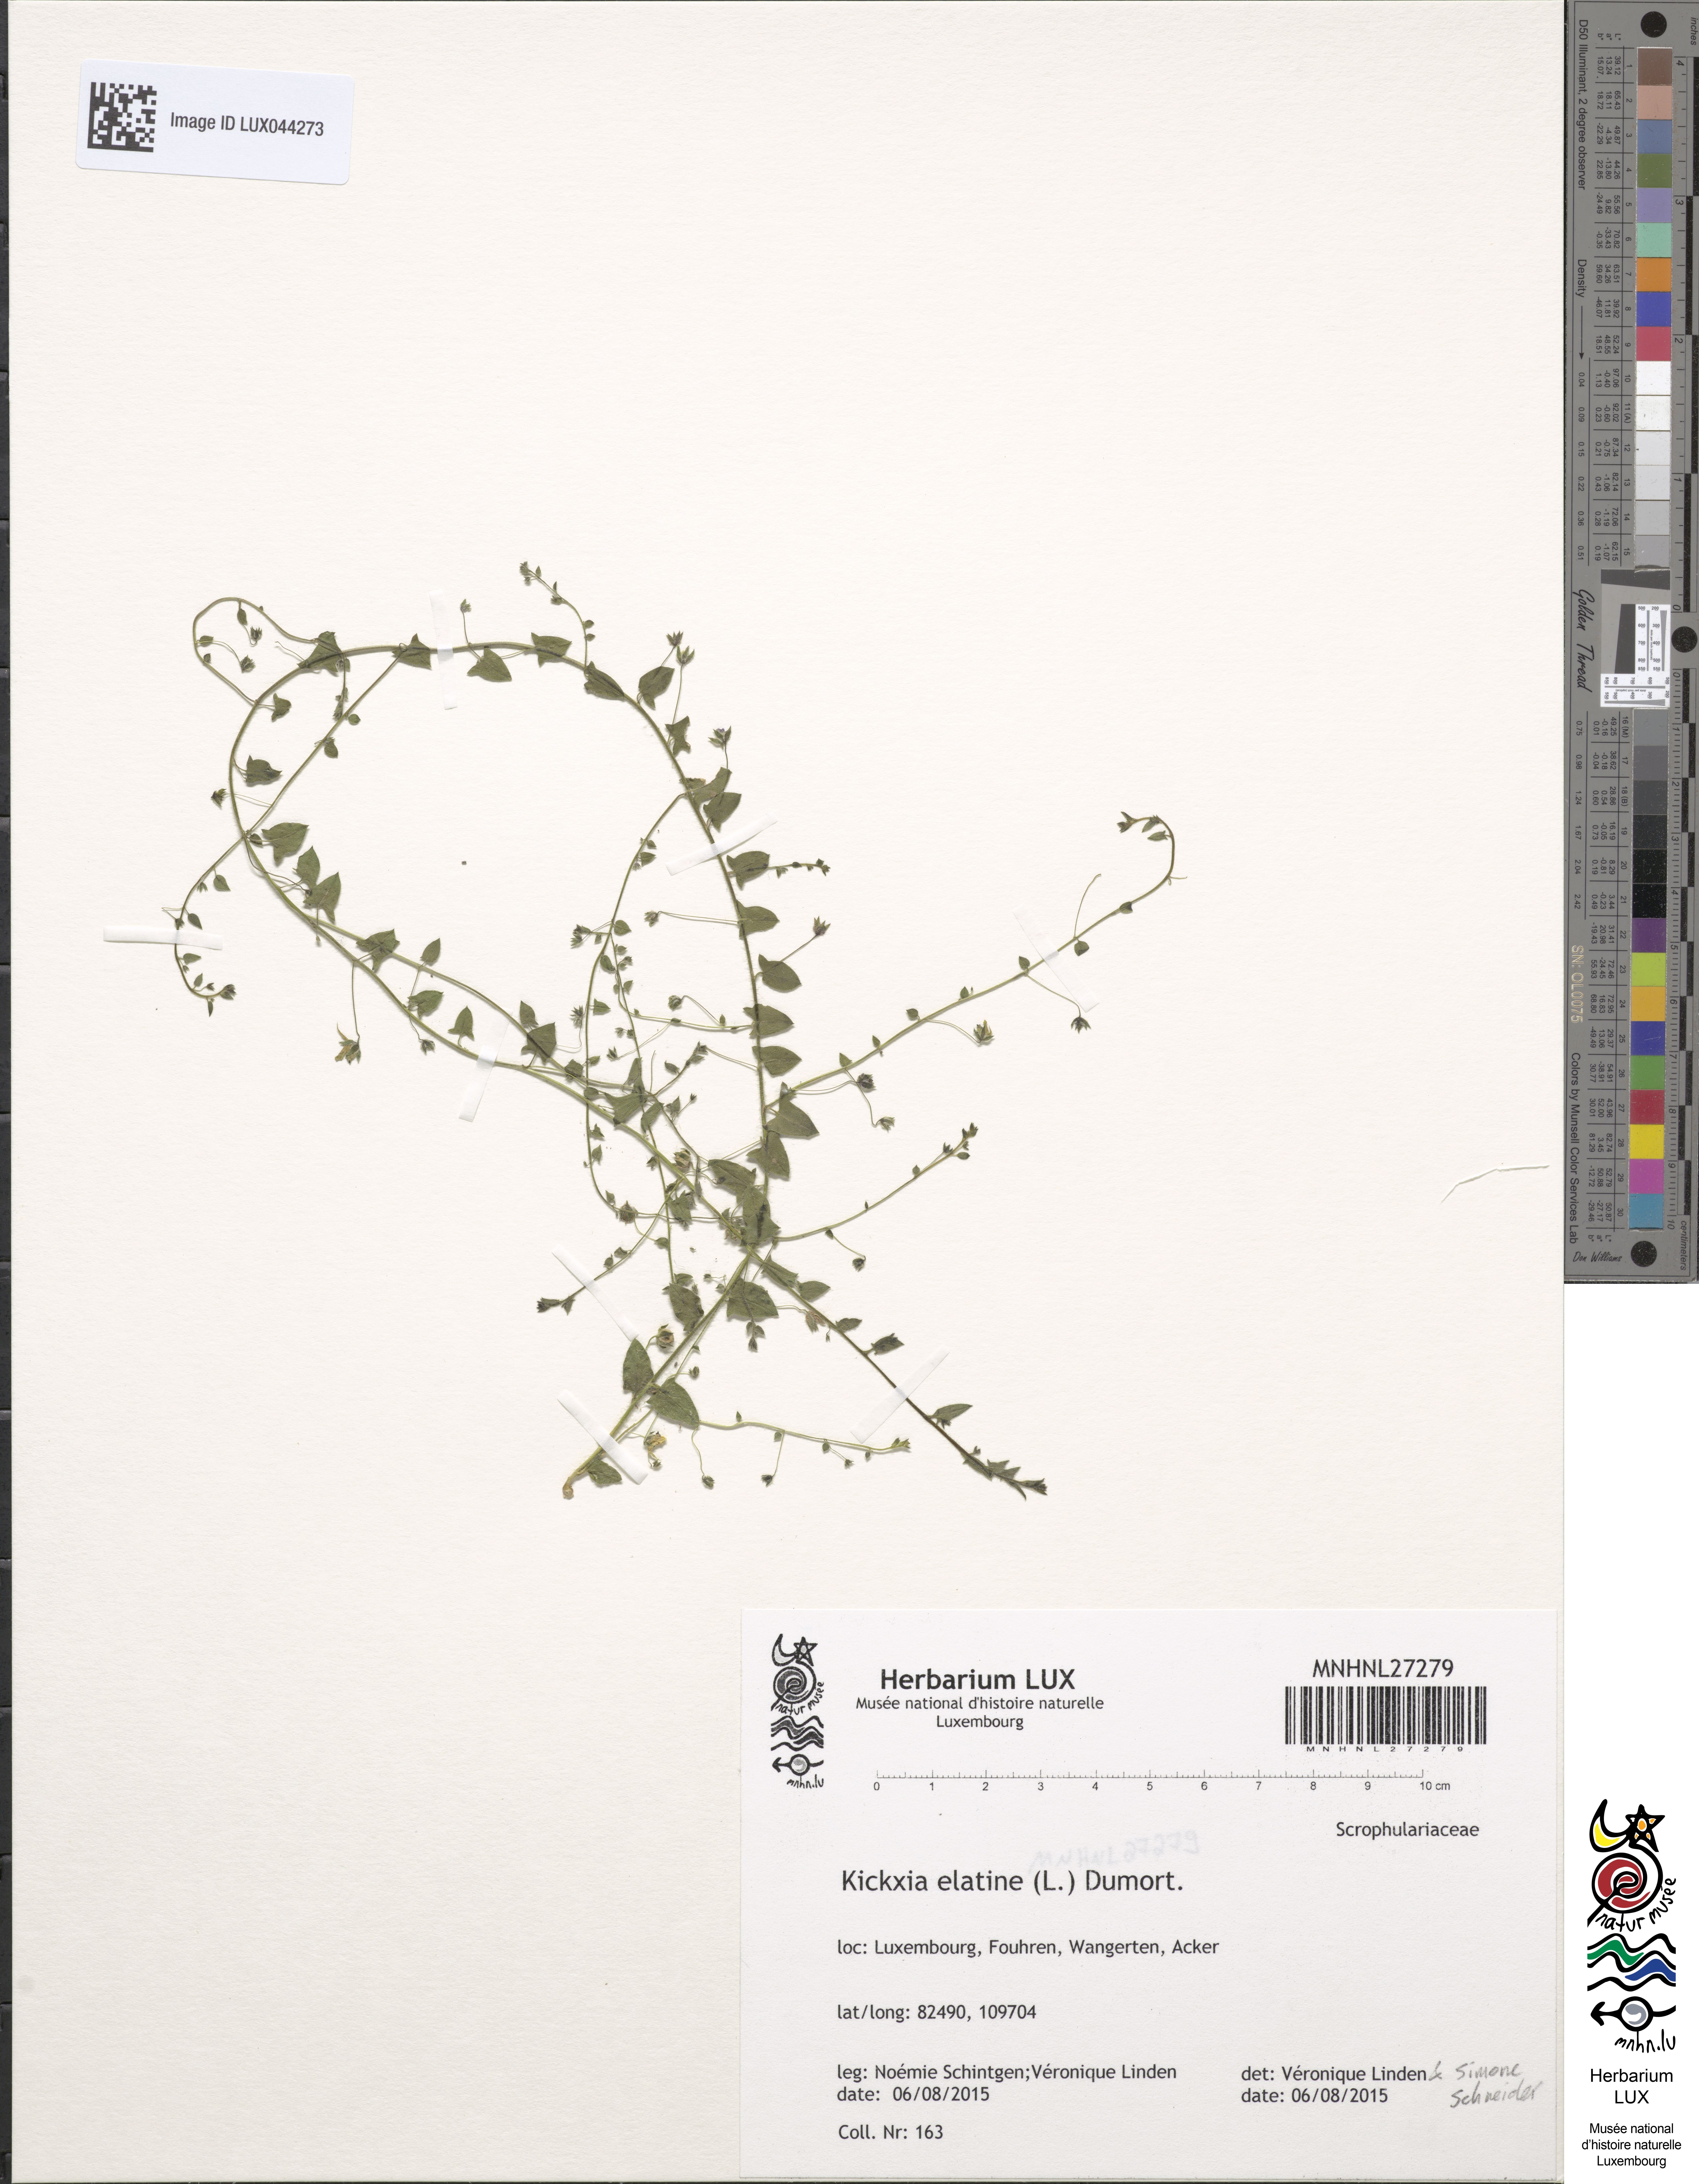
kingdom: Plantae
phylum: Tracheophyta
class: Magnoliopsida
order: Lamiales
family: Plantaginaceae
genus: Kickxia
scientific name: Kickxia elatine
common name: Sharp-leaved fluellen
